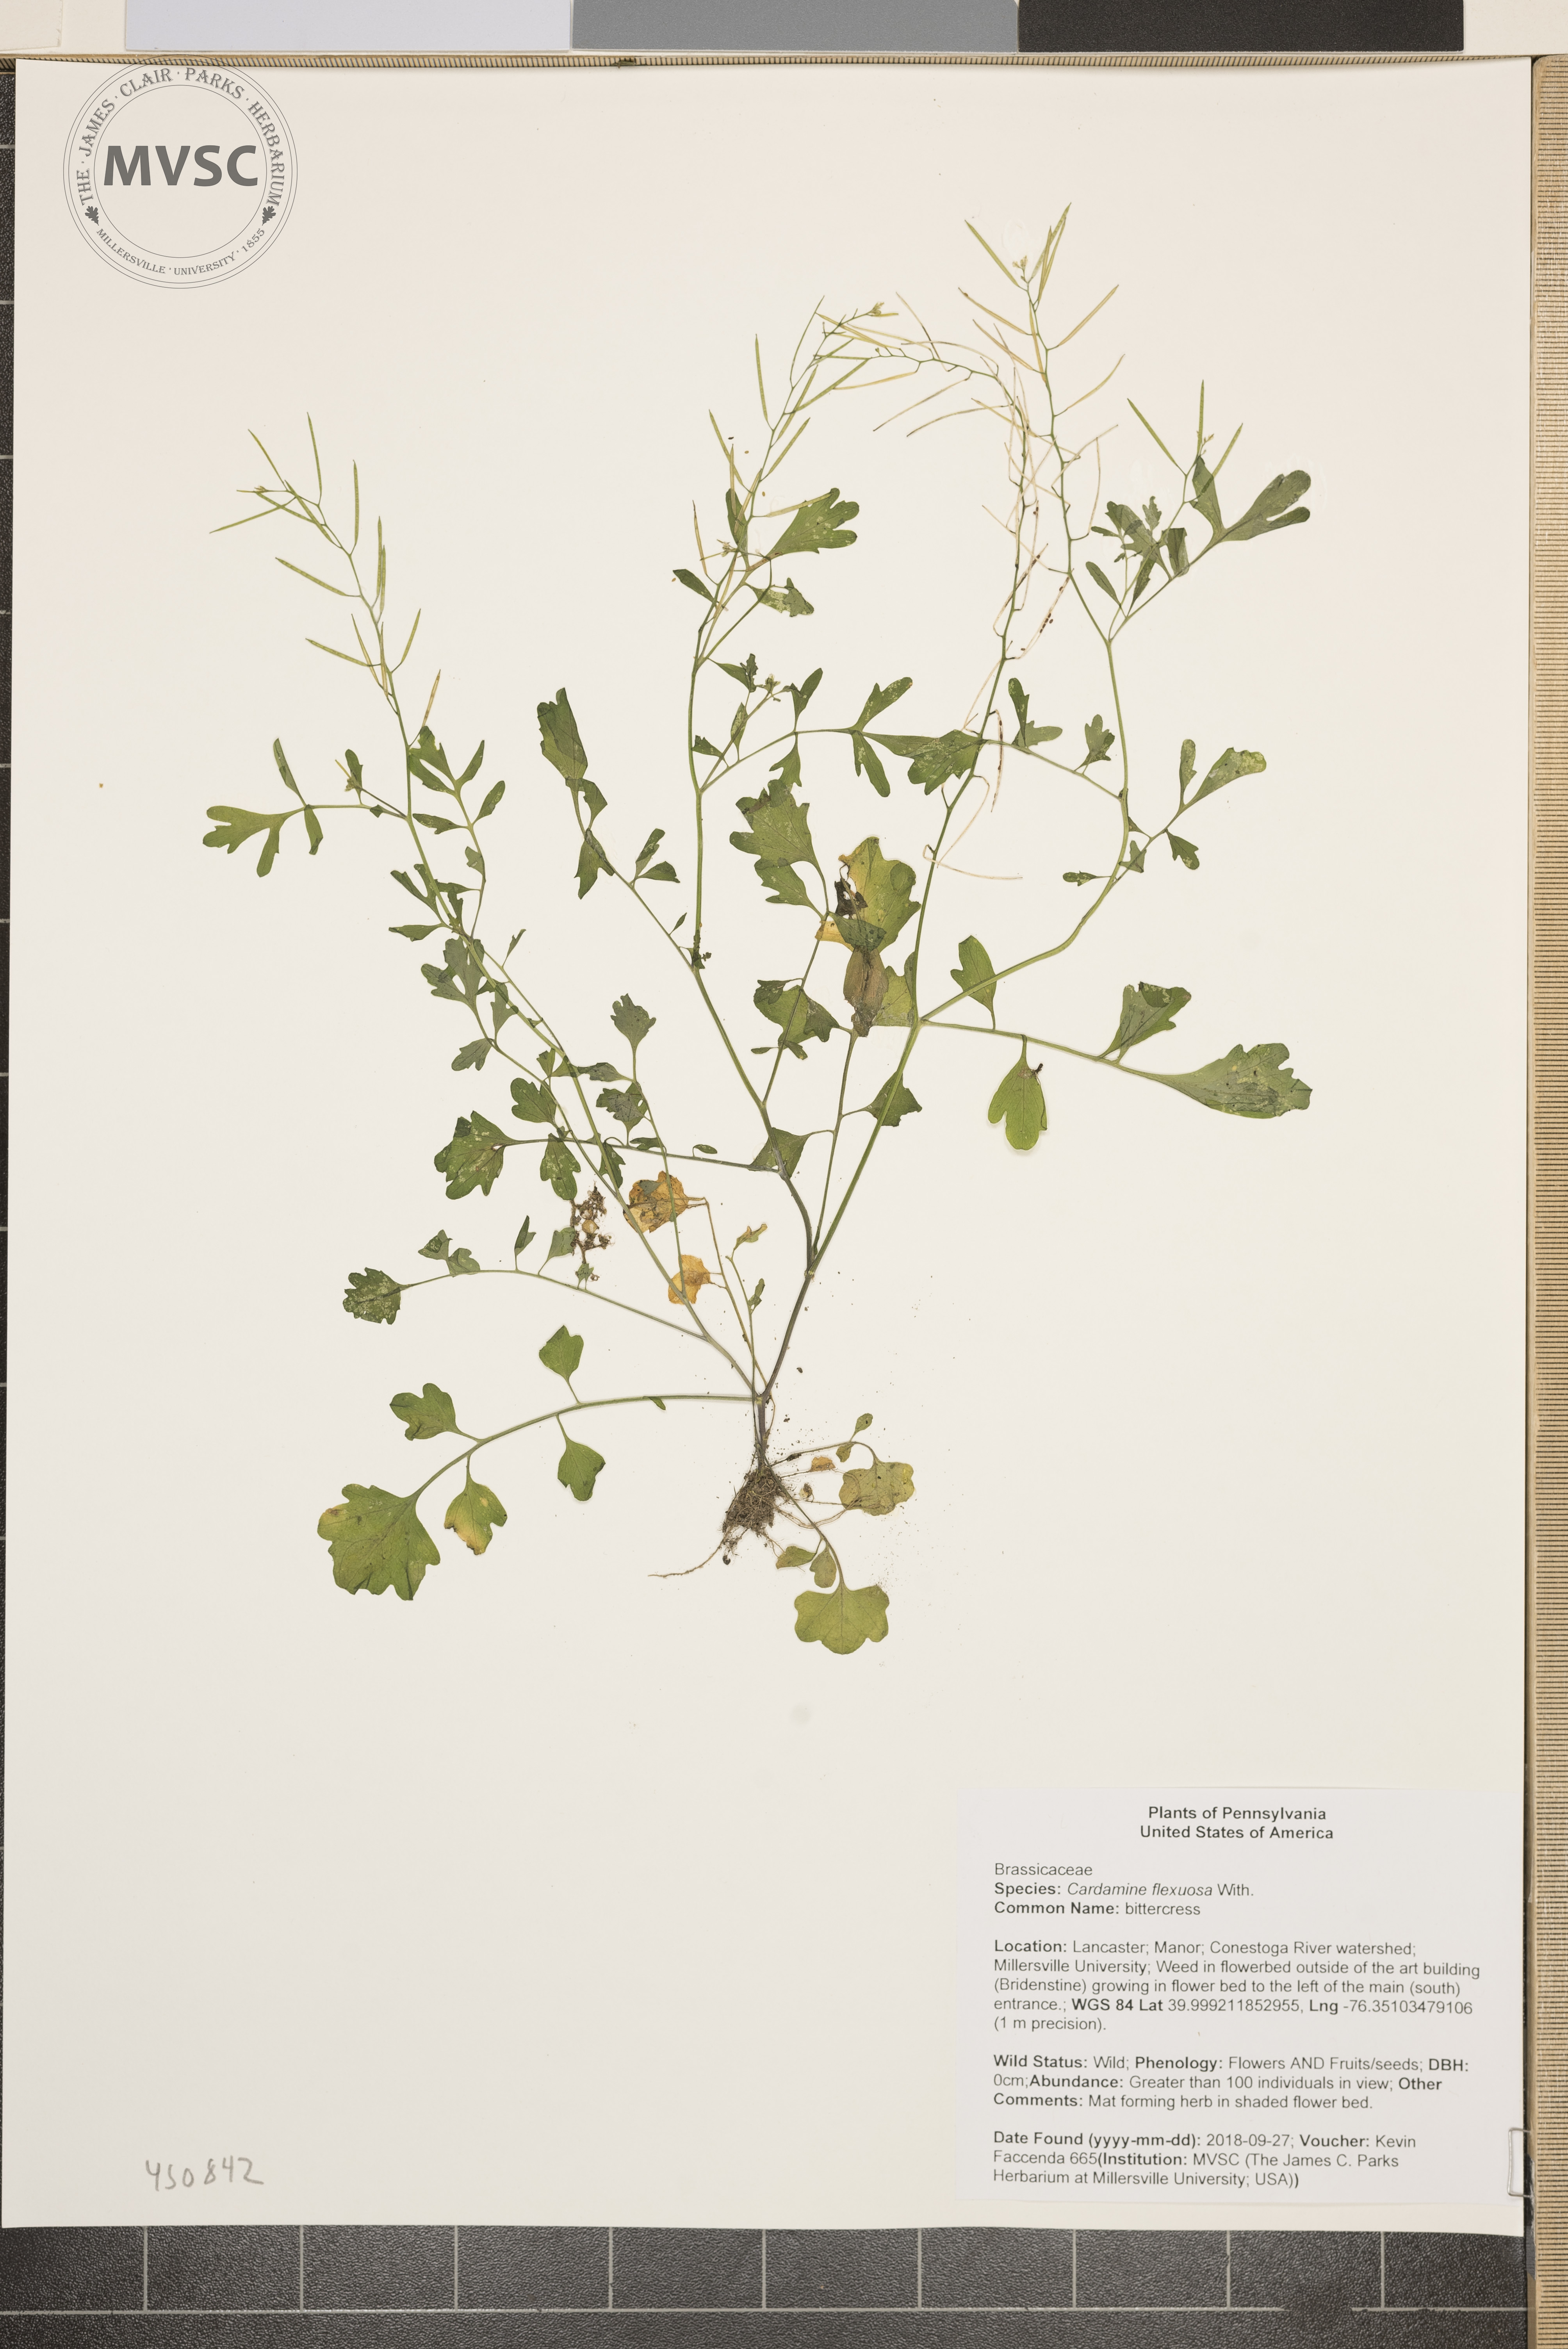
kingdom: Plantae
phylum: Tracheophyta
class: Magnoliopsida
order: Brassicales
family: Brassicaceae
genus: Cardamine
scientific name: Cardamine flexuosa
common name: bittercress
